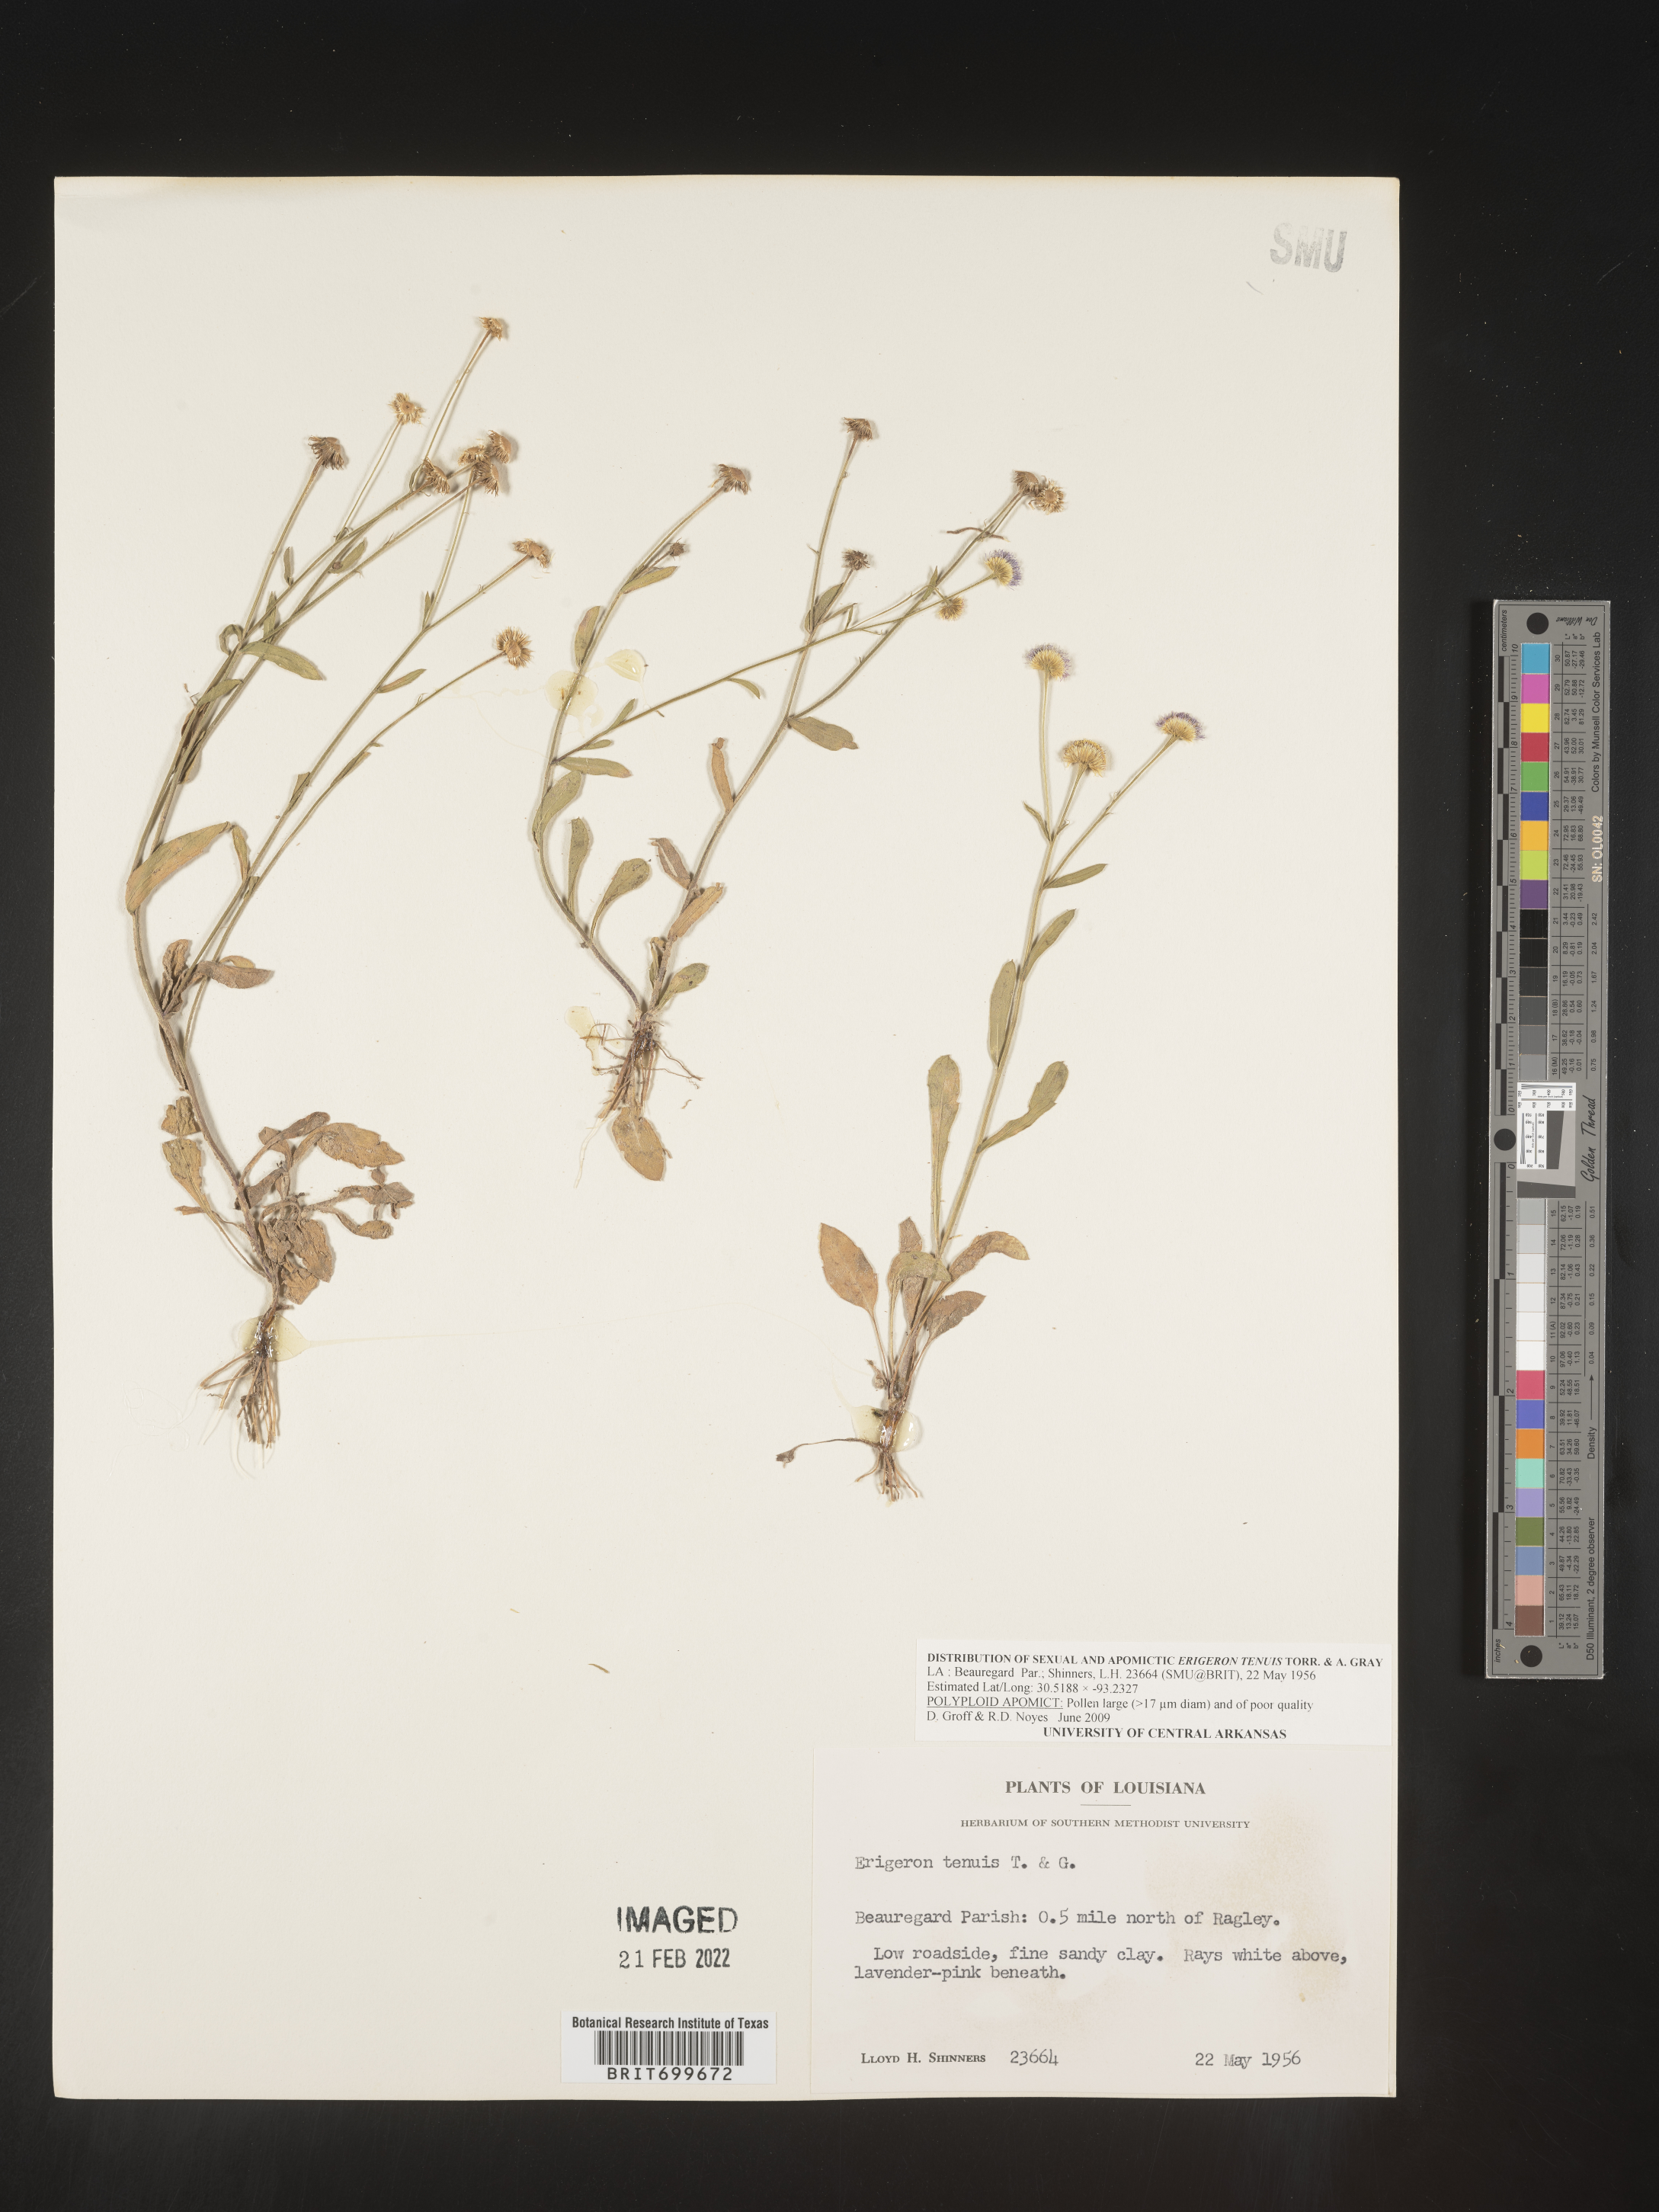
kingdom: Plantae
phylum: Tracheophyta
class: Magnoliopsida
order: Asterales
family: Asteraceae
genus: Erigeron
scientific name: Erigeron tenuis
